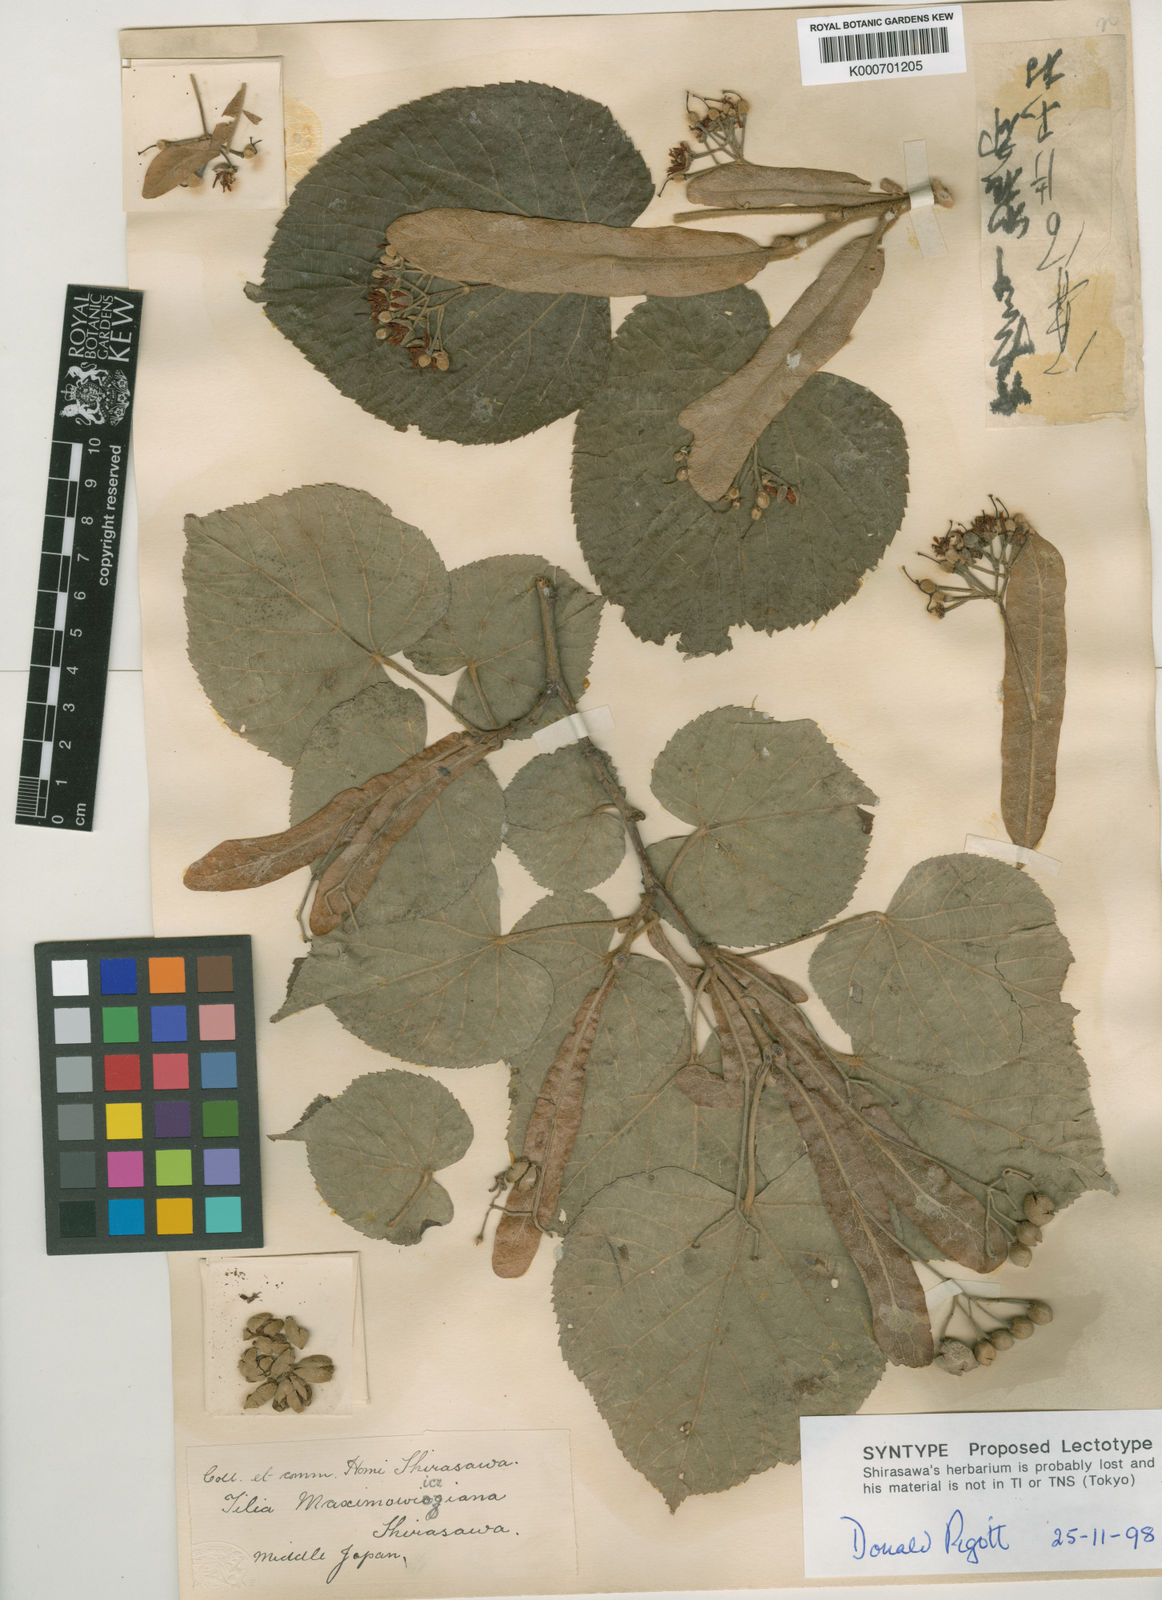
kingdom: Plantae
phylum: Tracheophyta
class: Magnoliopsida
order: Malvales
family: Malvaceae
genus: Tilia
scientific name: Tilia maximowicziana
